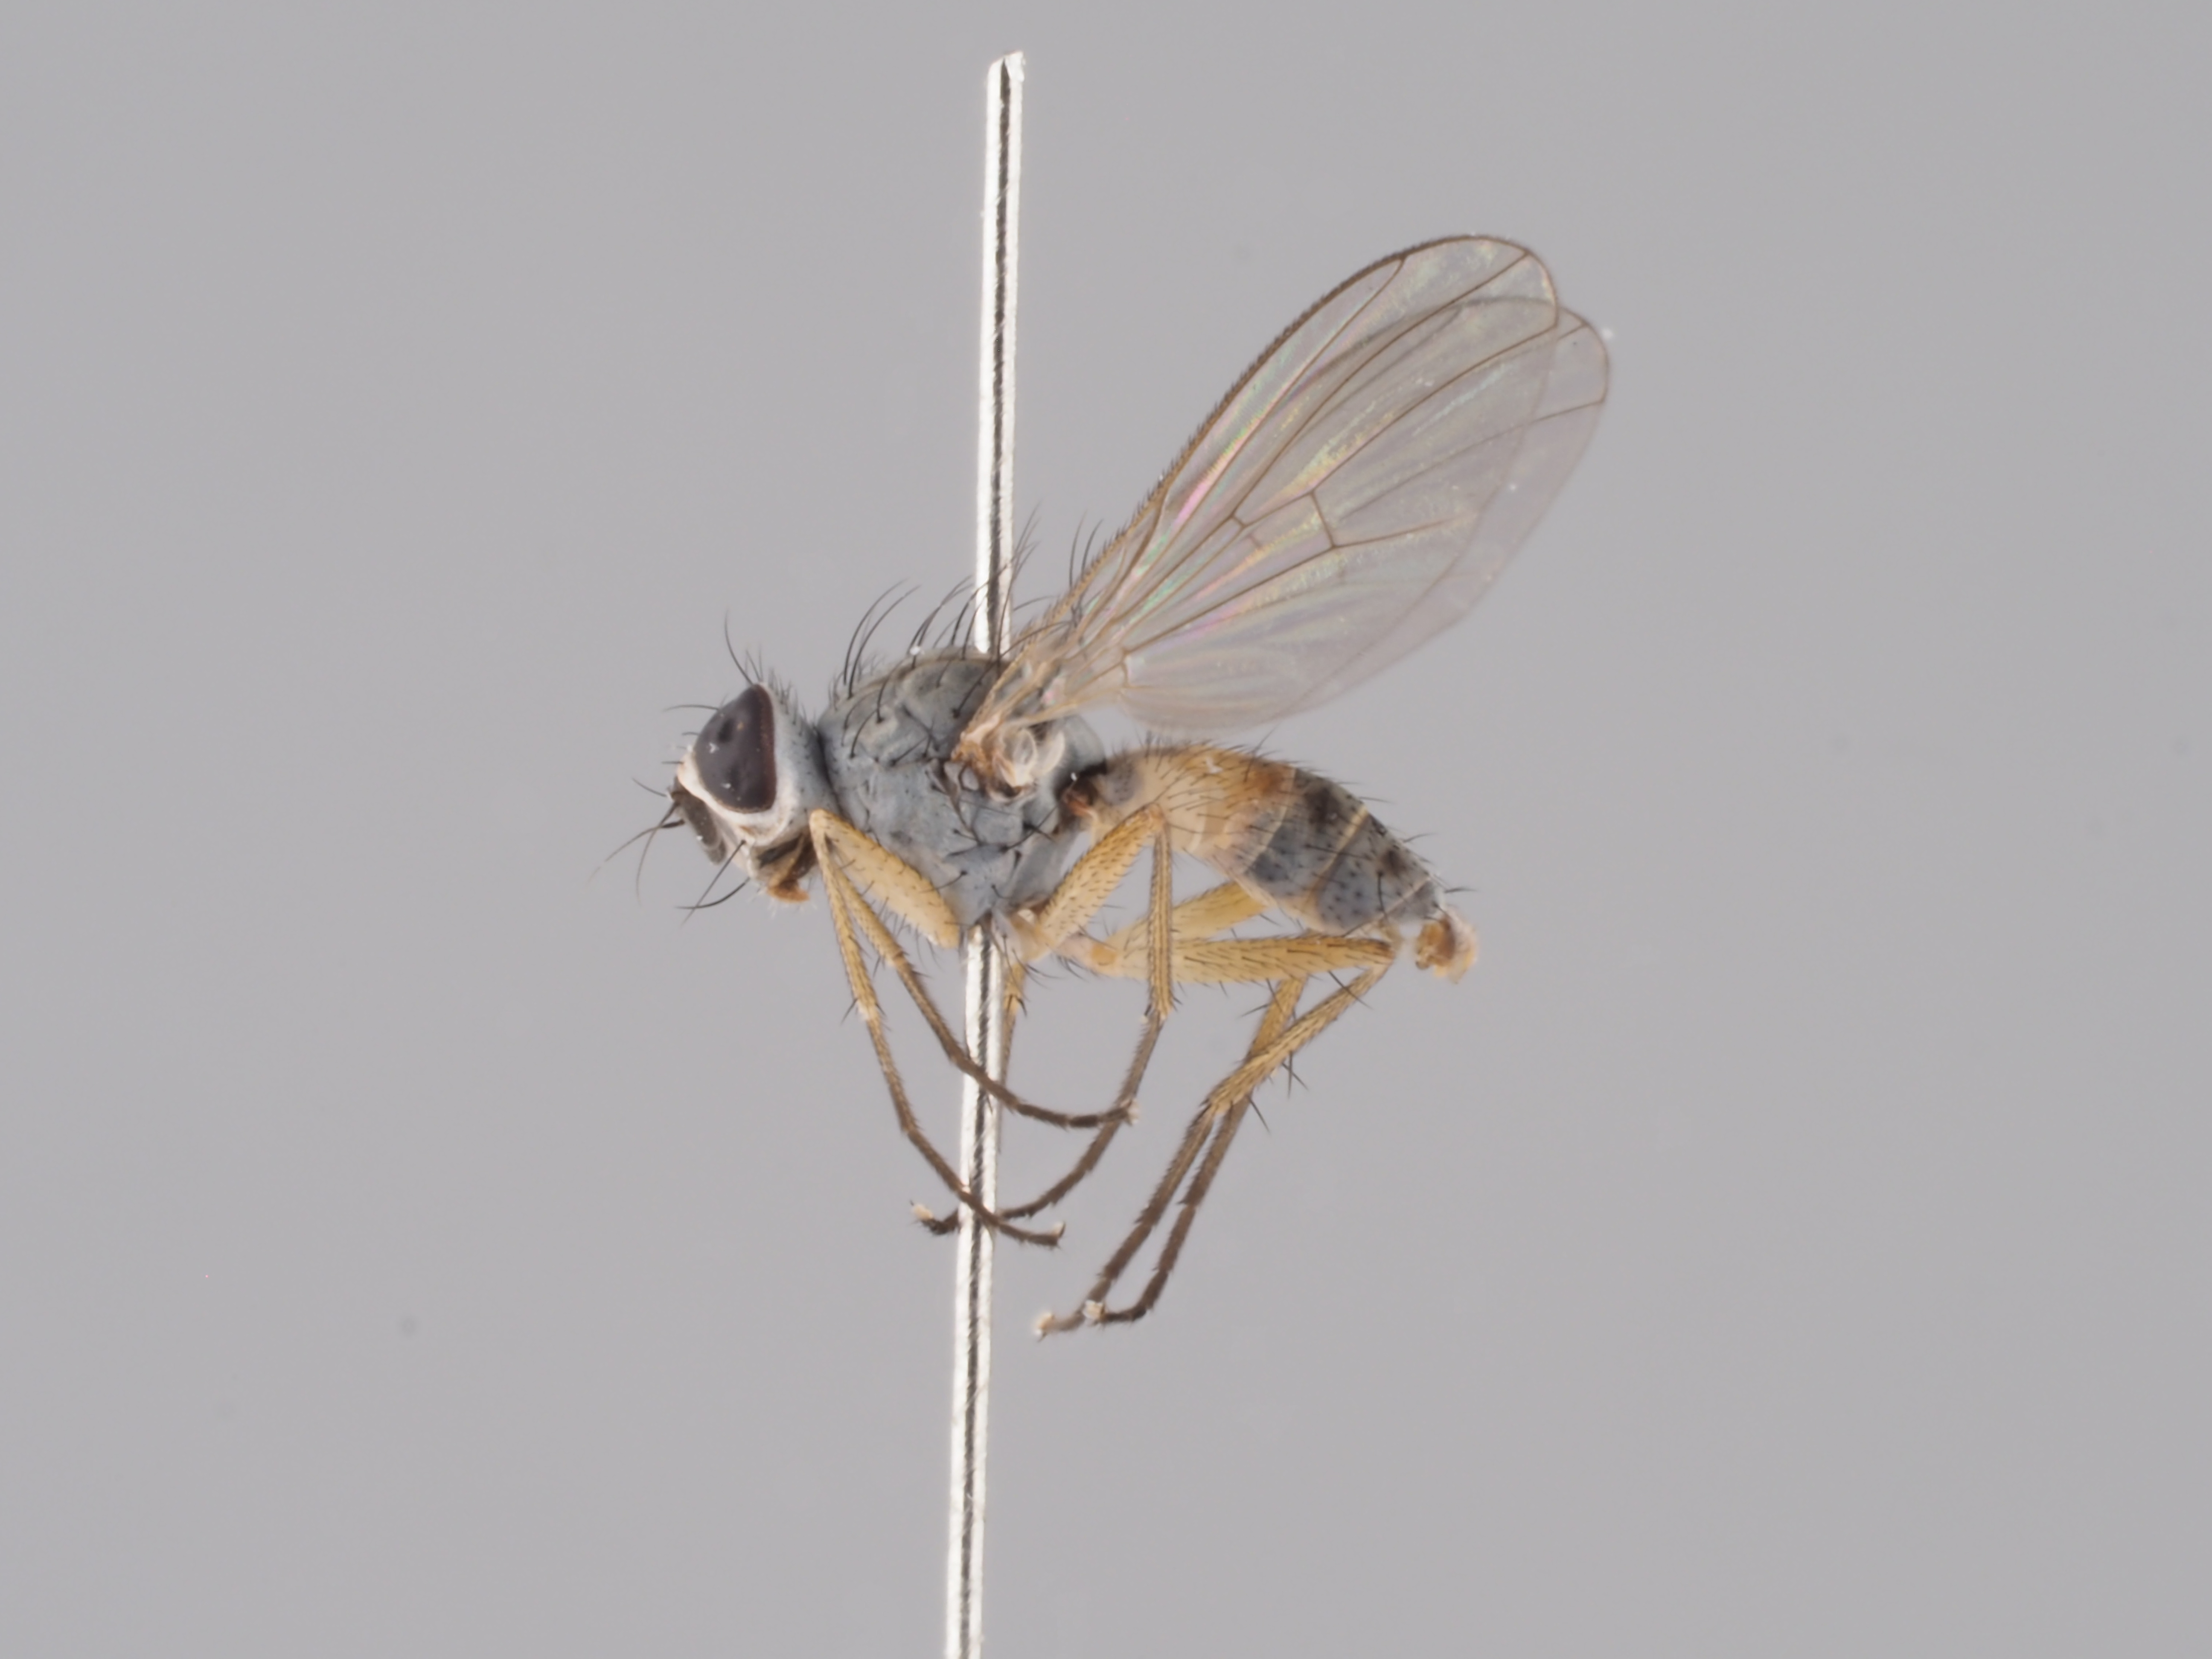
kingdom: Animalia
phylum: Arthropoda
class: Insecta
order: Diptera
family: Muscidae
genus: Coenosia
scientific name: Coenosia testacea
